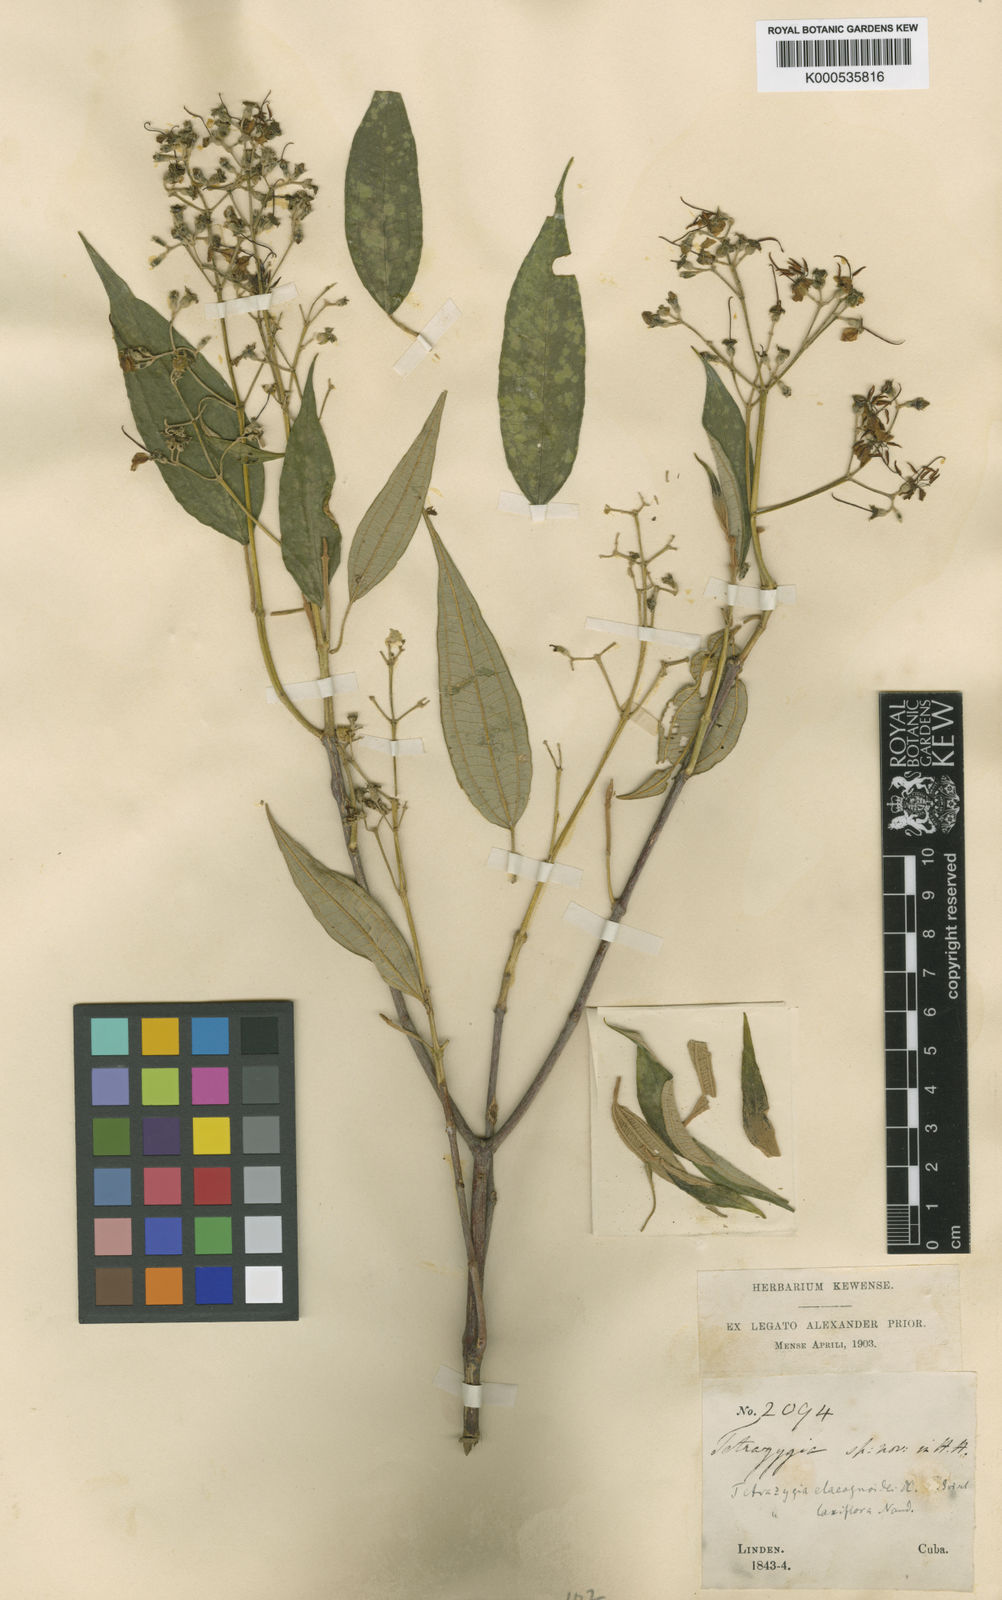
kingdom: Plantae
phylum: Tracheophyta
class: Magnoliopsida
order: Myrtales
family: Melastomataceae
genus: Miconia
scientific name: Miconia rangeliana
